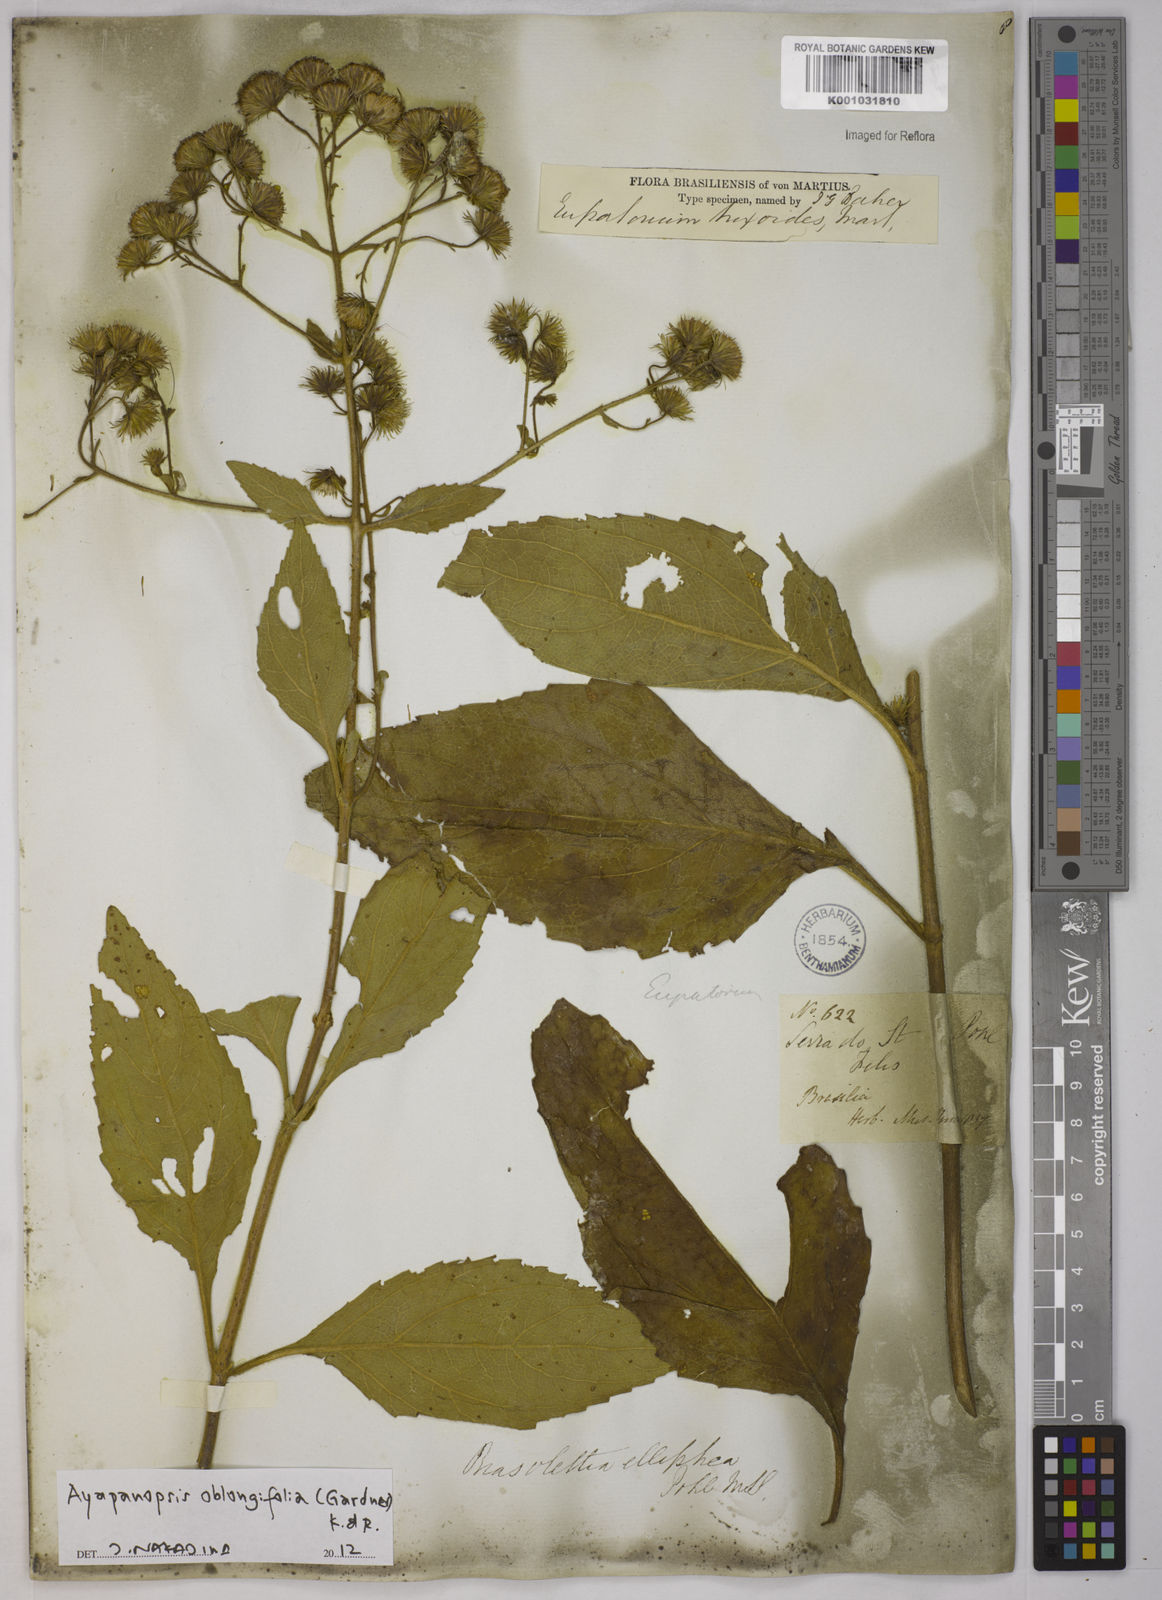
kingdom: Plantae
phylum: Tracheophyta
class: Magnoliopsida
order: Asterales
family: Asteraceae
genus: Ayapanopsis
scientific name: Ayapanopsis oblongifolia
